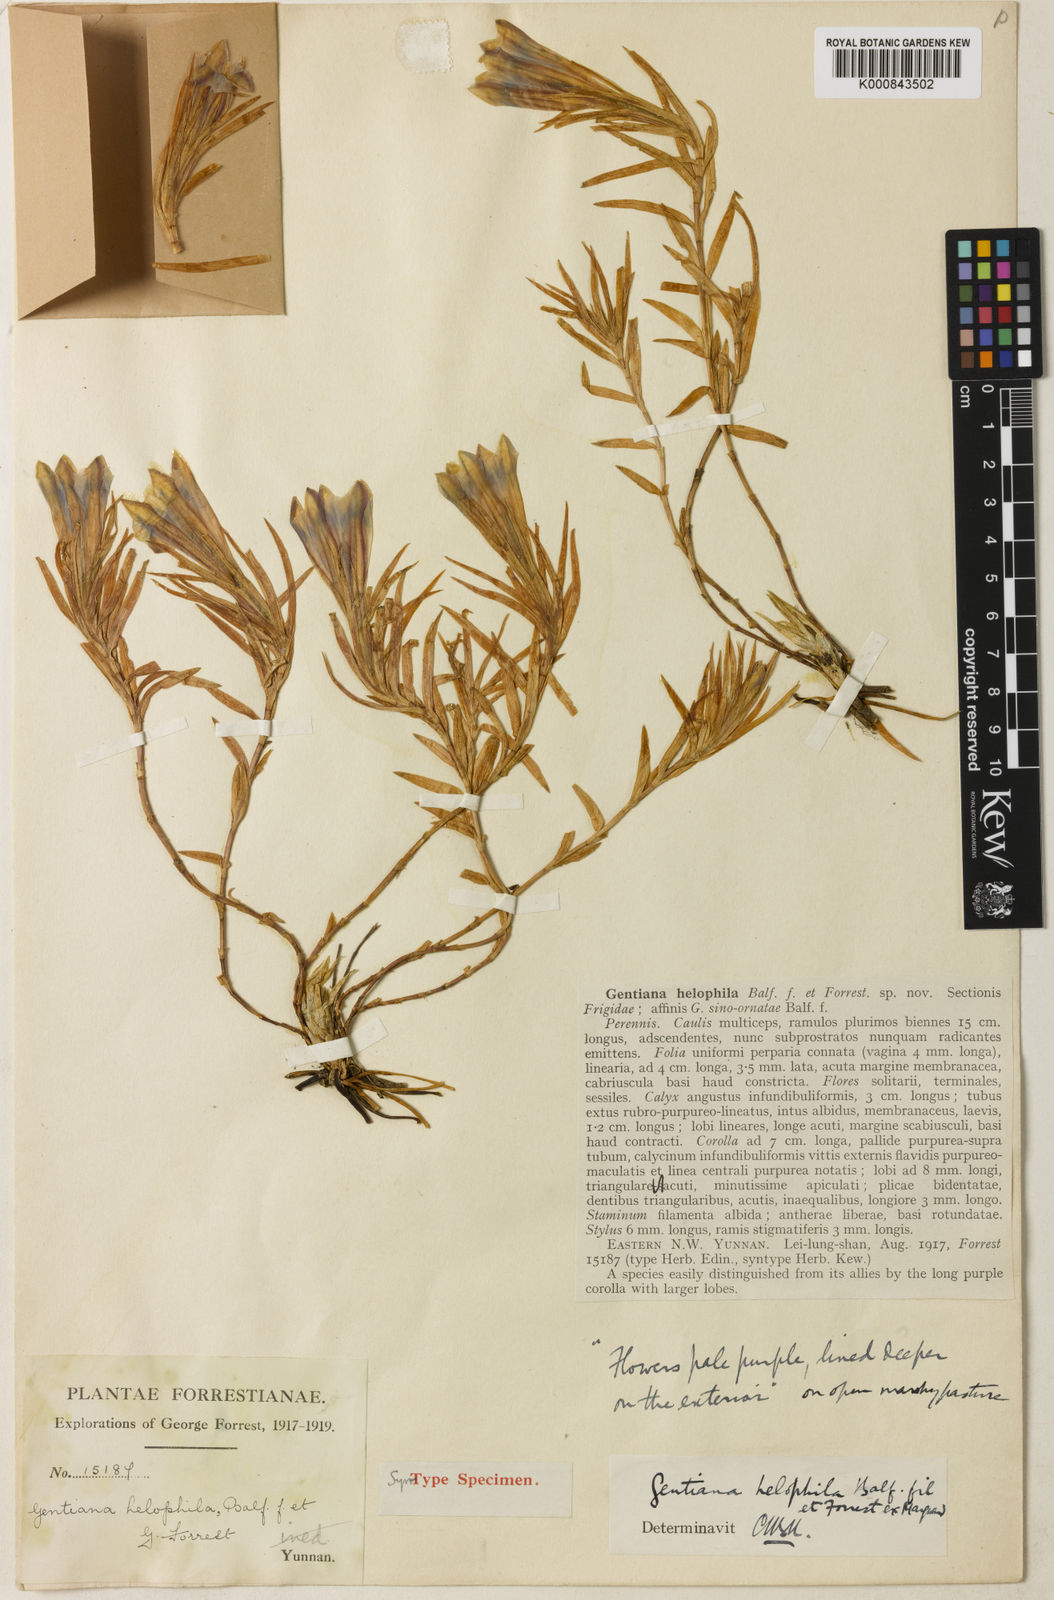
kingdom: Plantae
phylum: Tracheophyta
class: Magnoliopsida
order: Gentianales
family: Gentianaceae
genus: Gentiana
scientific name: Gentiana
